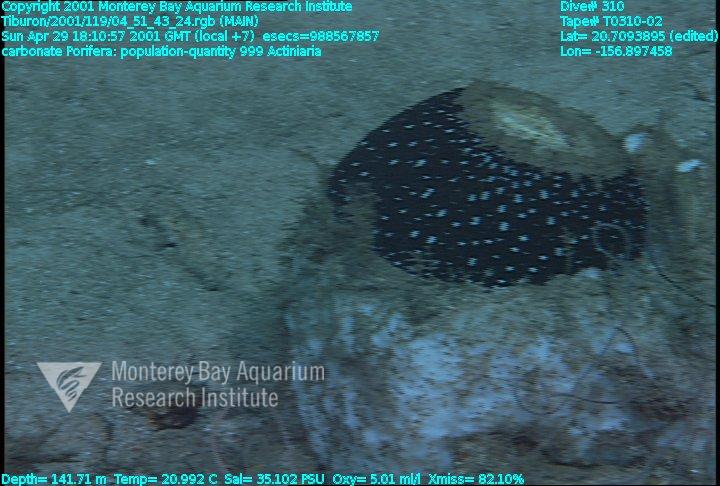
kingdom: Animalia
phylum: Porifera
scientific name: Porifera
